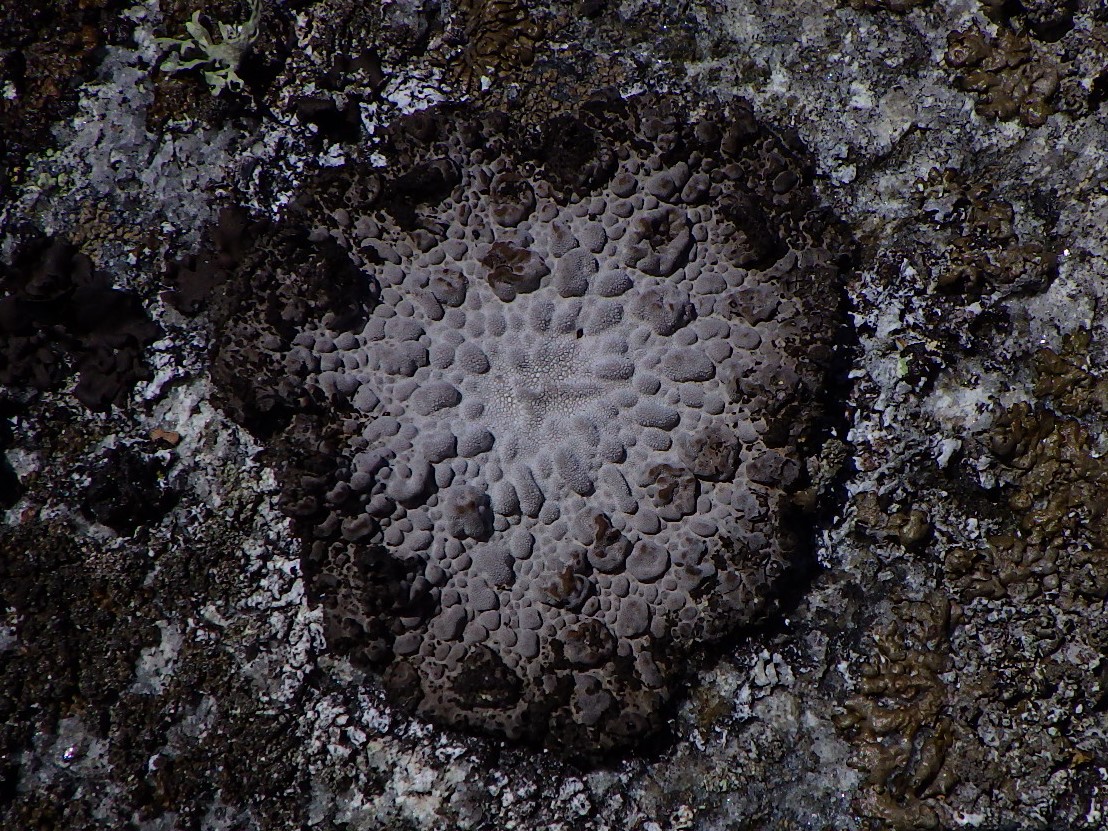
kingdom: Fungi
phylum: Ascomycota
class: Lecanoromycetes
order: Umbilicariales
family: Umbilicariaceae
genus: Lasallia
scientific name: Lasallia pustulata
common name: buklet navlelav
